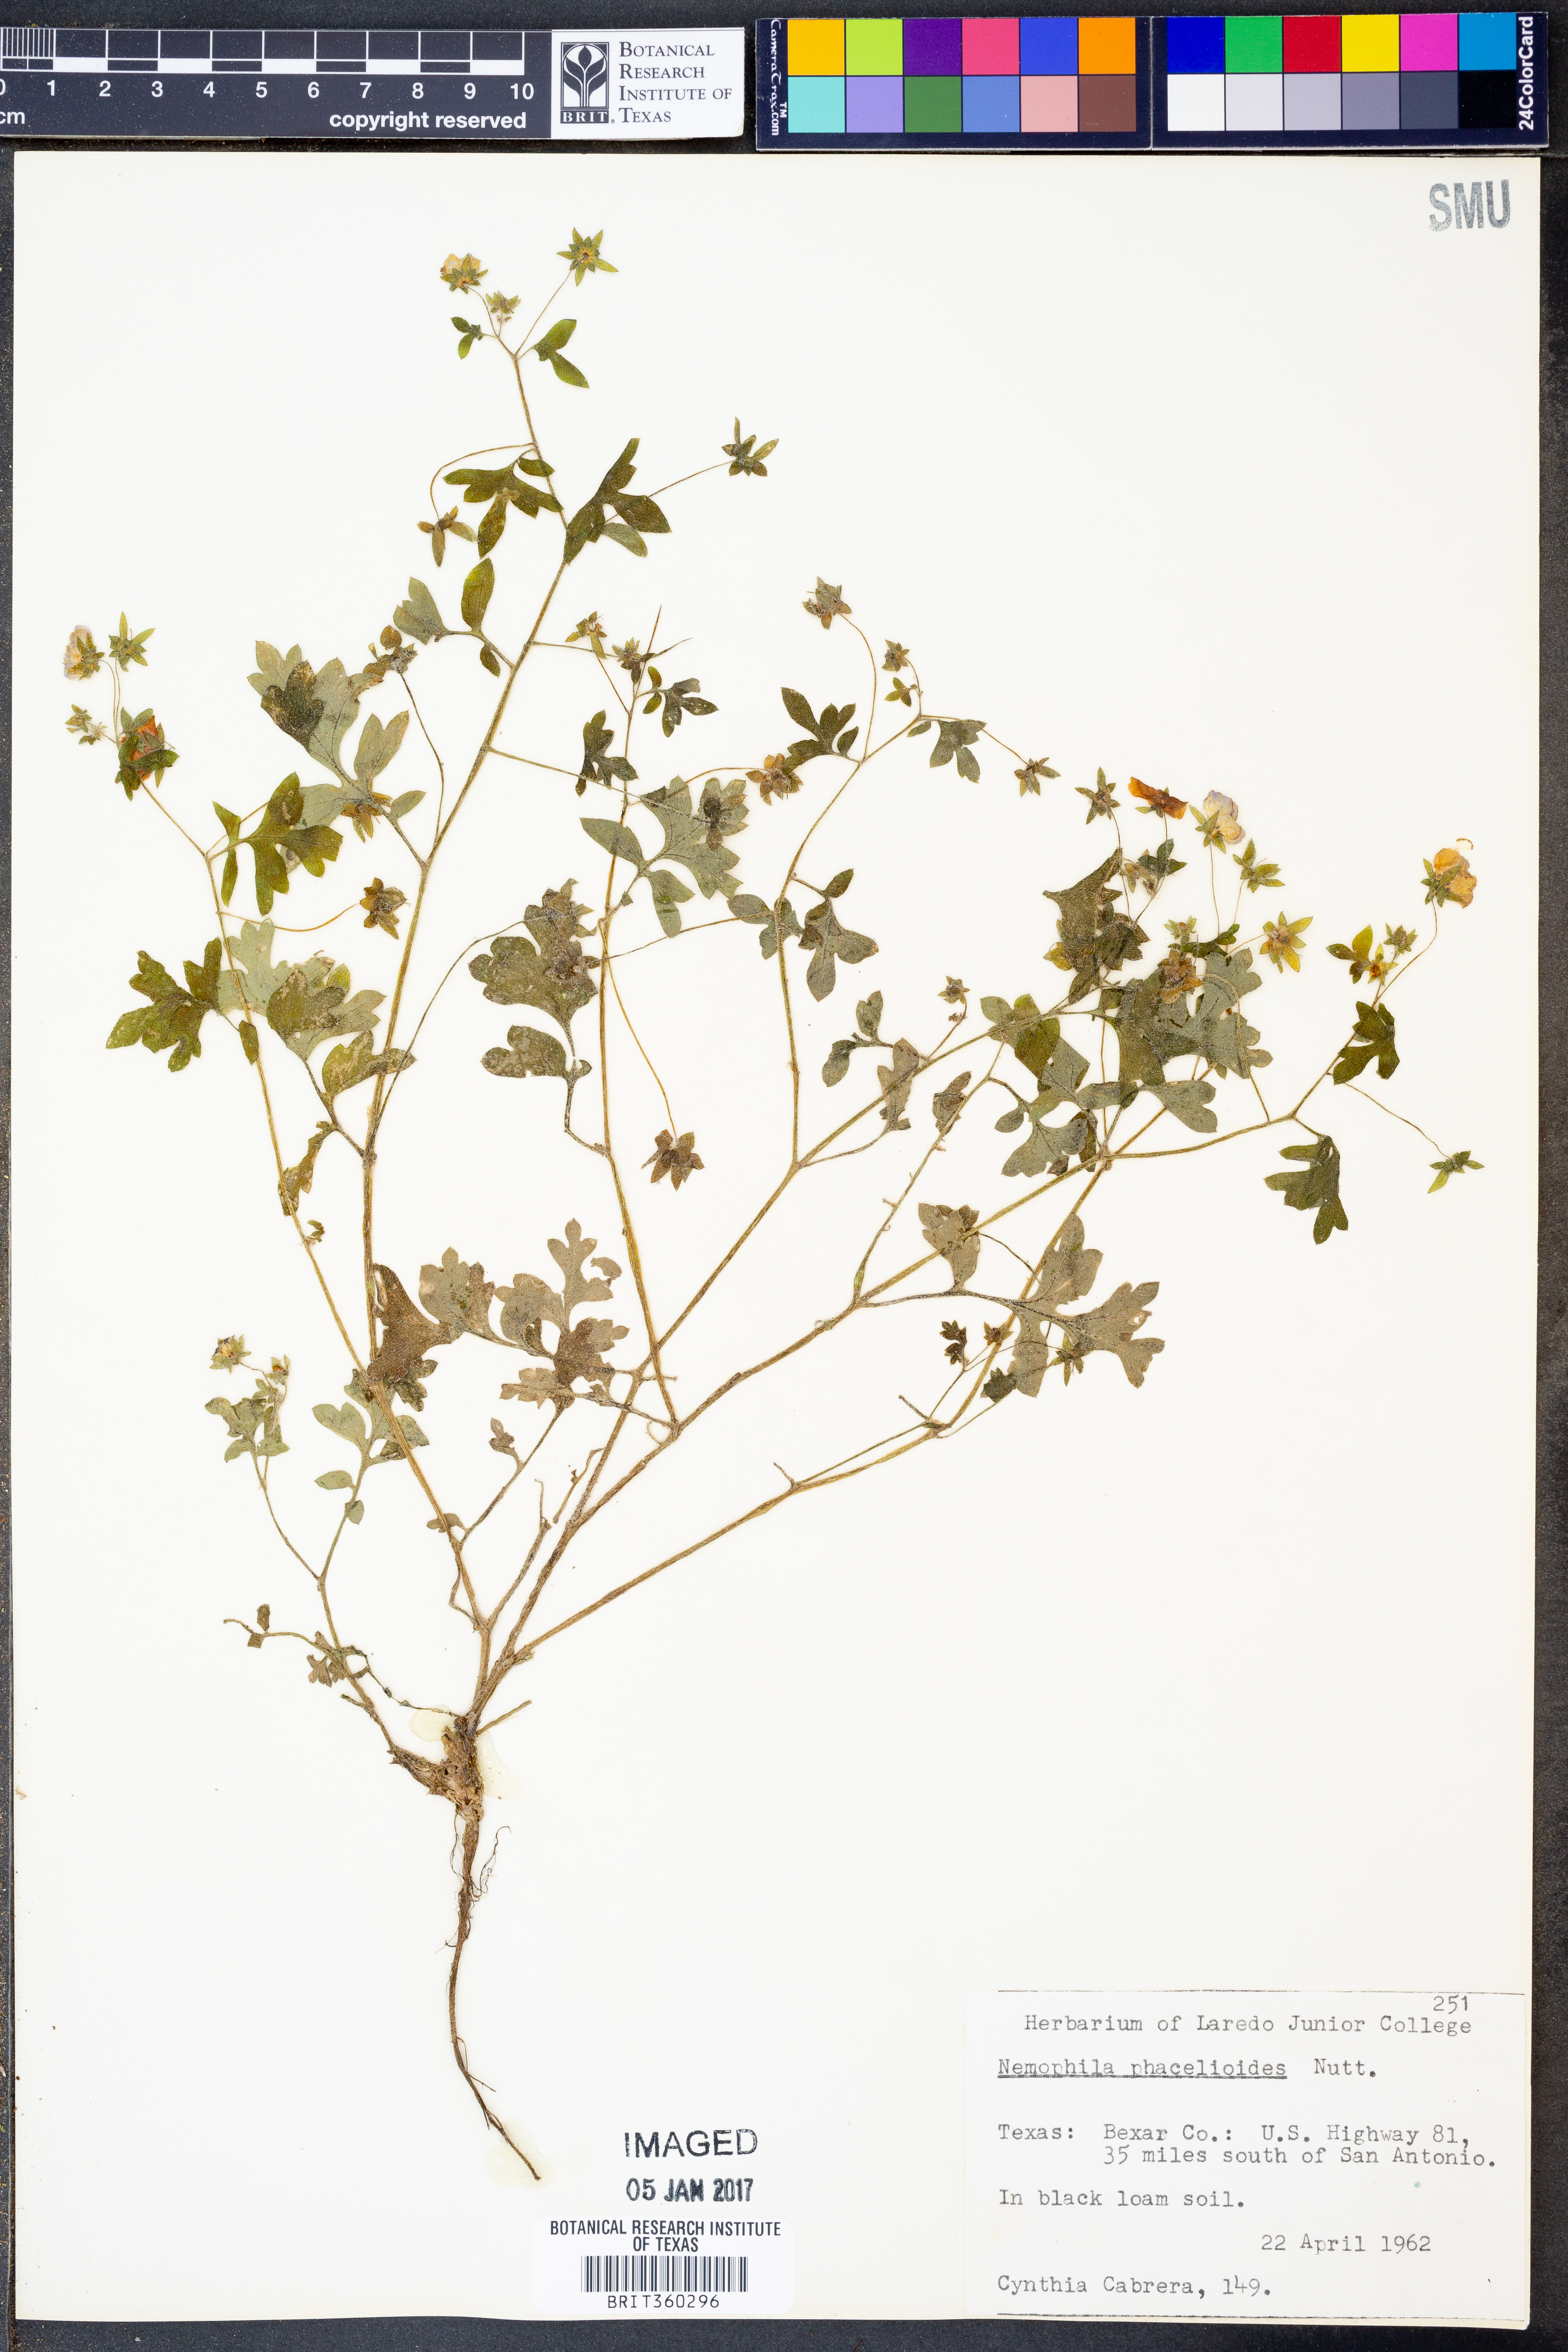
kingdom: Plantae
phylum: Tracheophyta
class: Magnoliopsida
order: Boraginales
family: Hydrophyllaceae
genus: Nemophila
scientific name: Nemophila phacelioides
